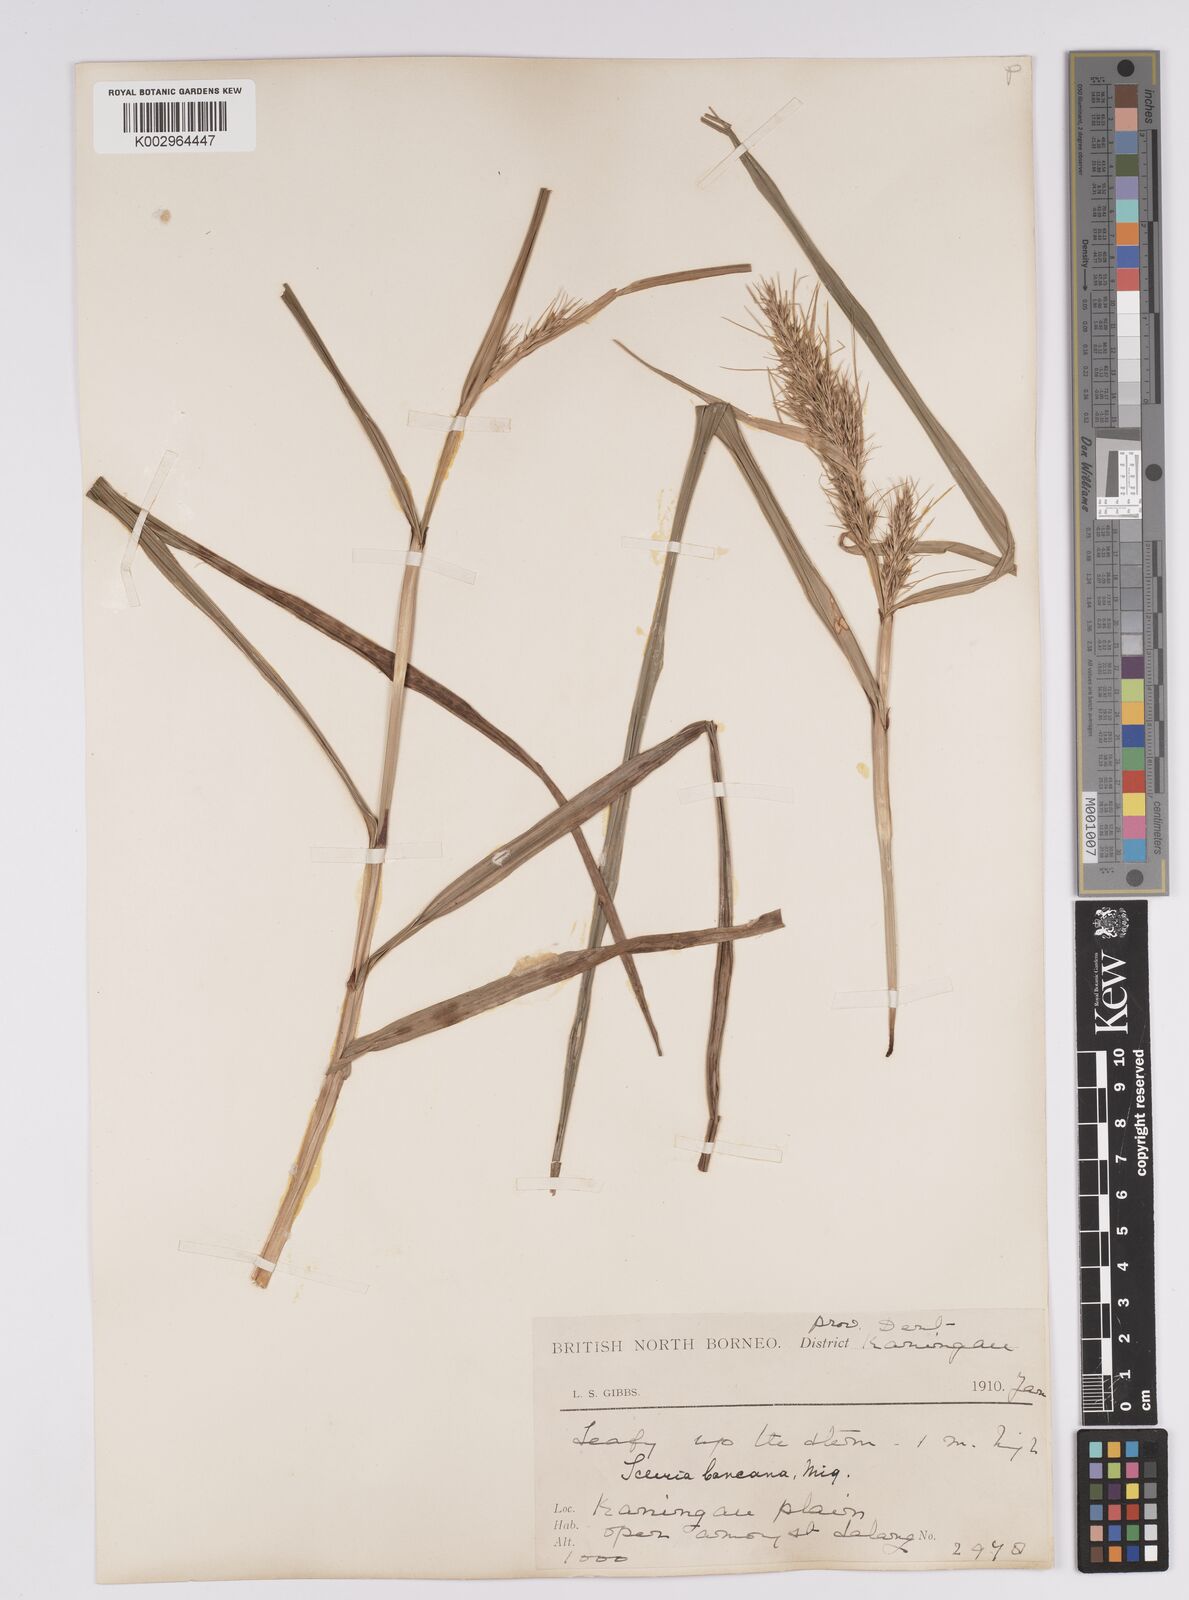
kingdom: Plantae
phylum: Tracheophyta
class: Liliopsida
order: Poales
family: Cyperaceae
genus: Scleria
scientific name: Scleria ciliaris
